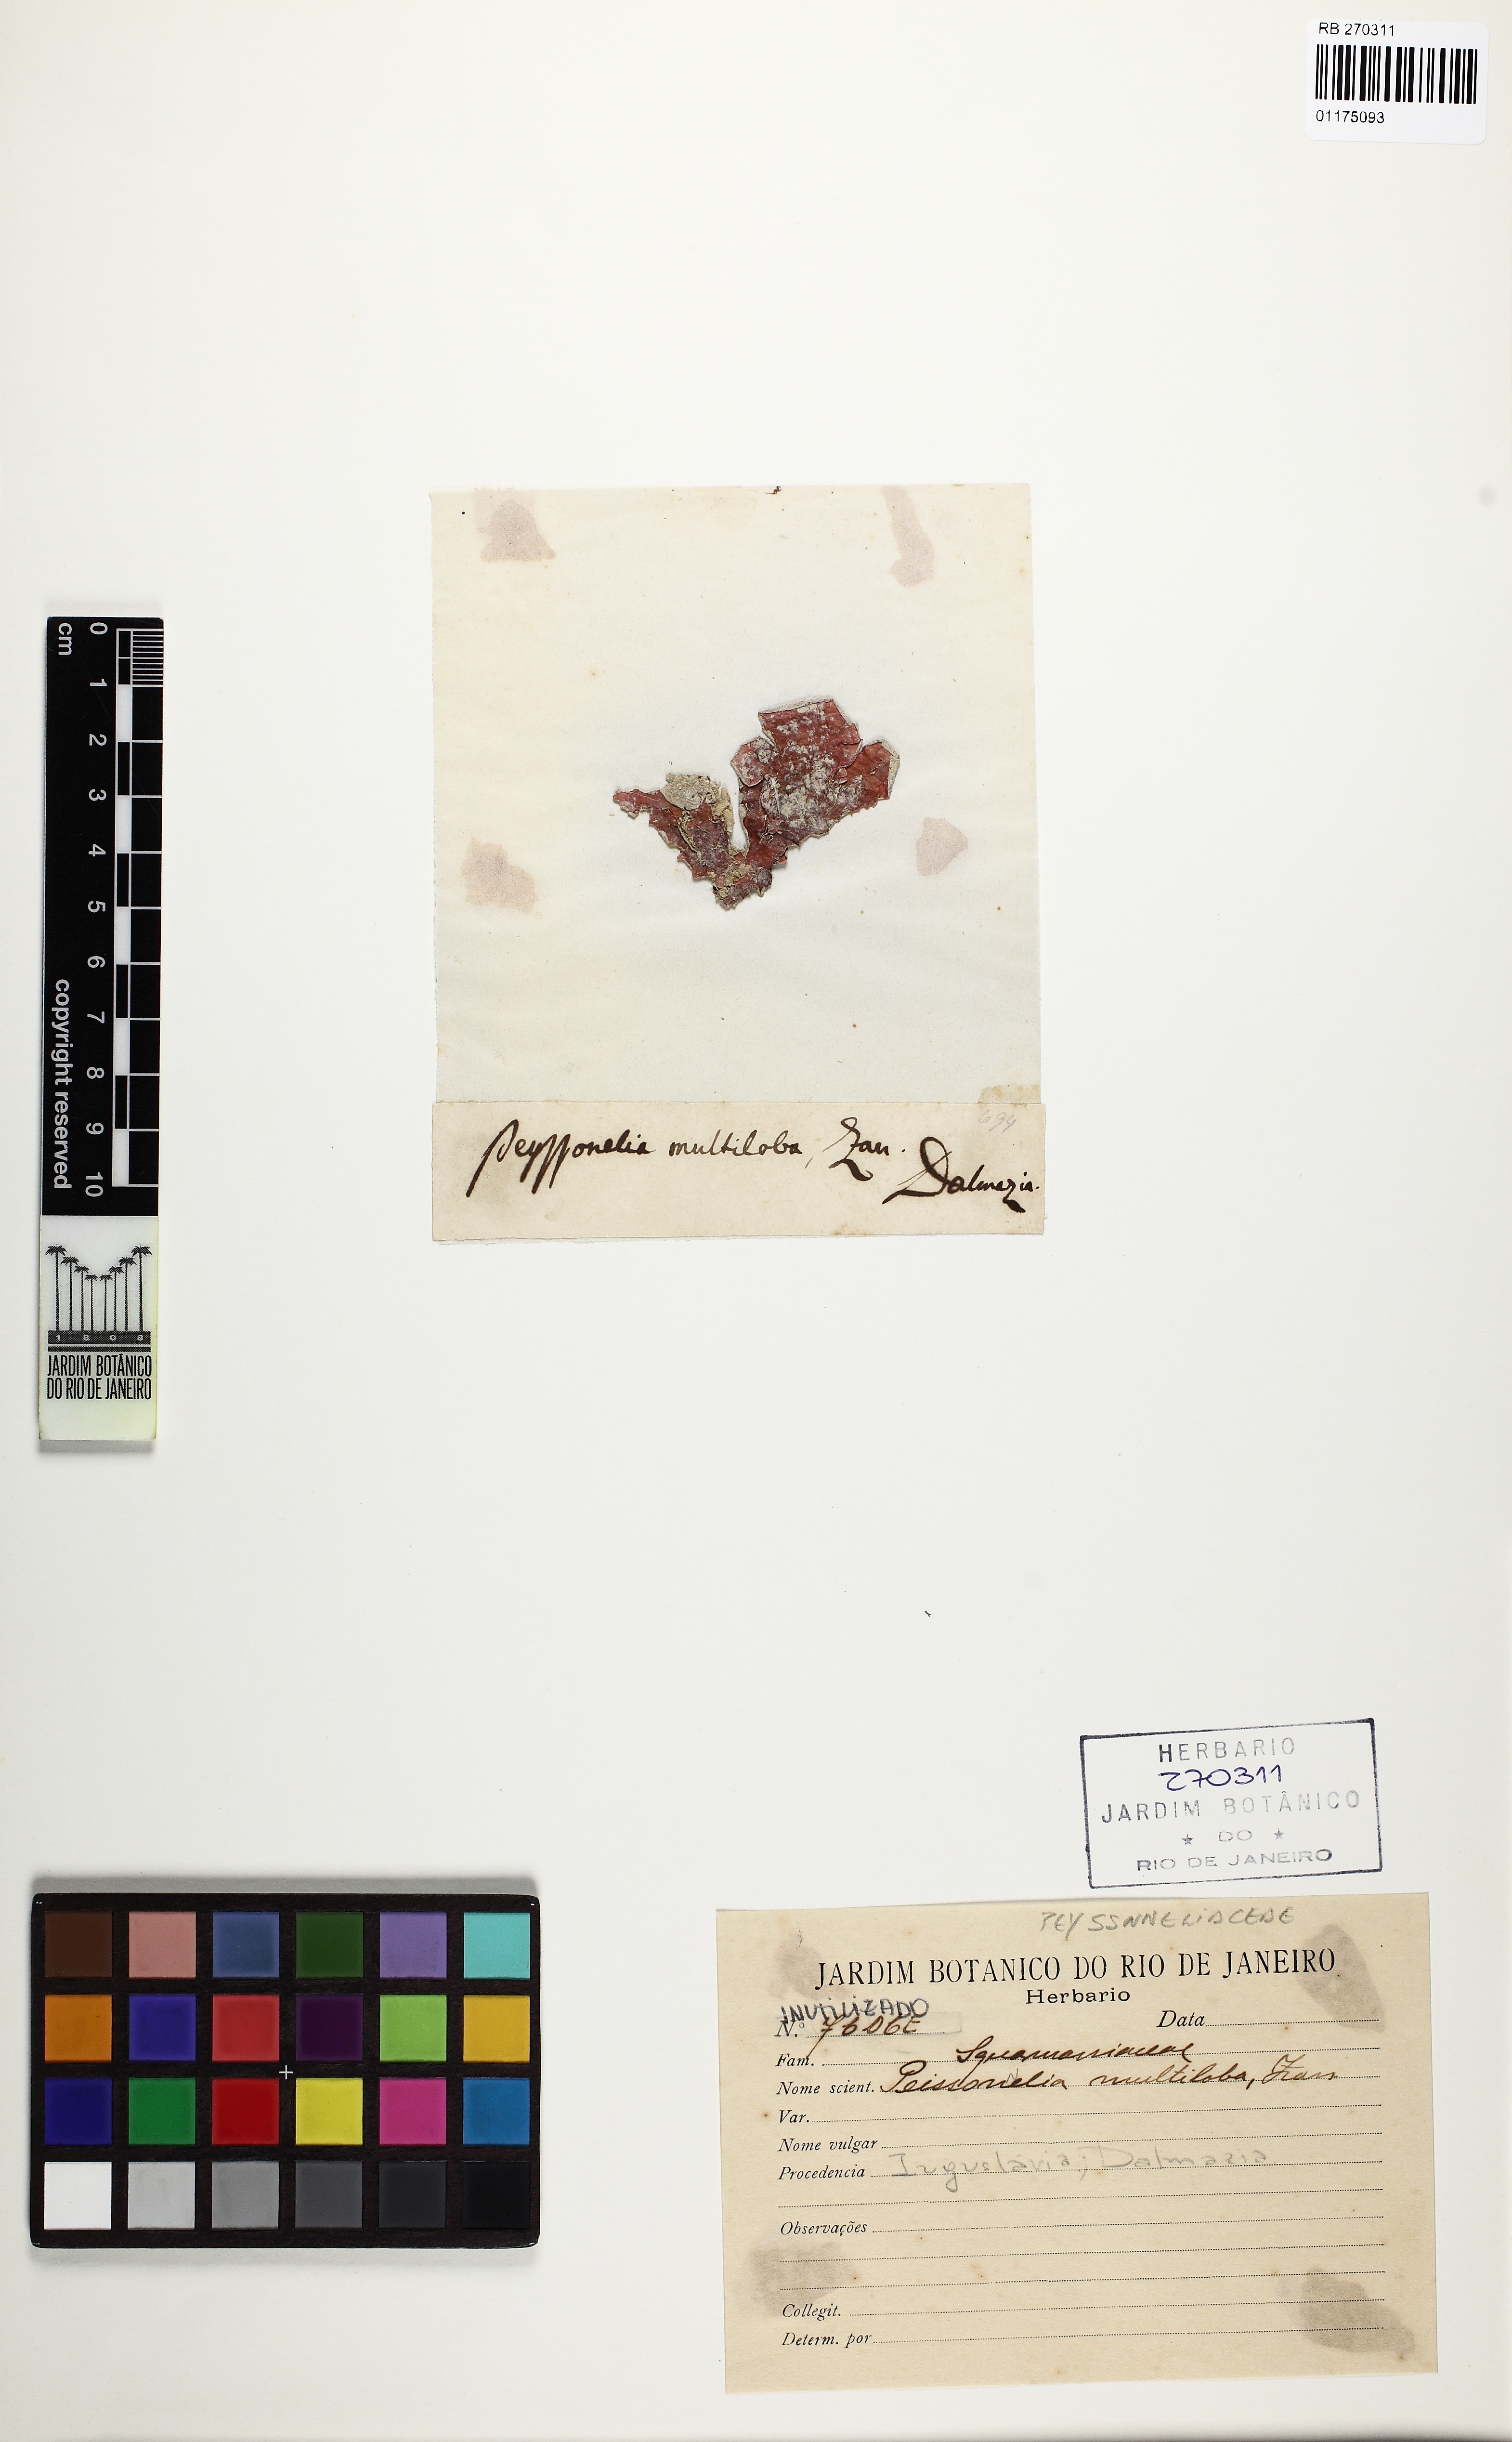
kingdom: Plantae
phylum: Rhodophyta
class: Florideophyceae
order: Peyssonneliales
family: Peyssonneliaceae
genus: Peyssonnelia
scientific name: Peyssonnelia
